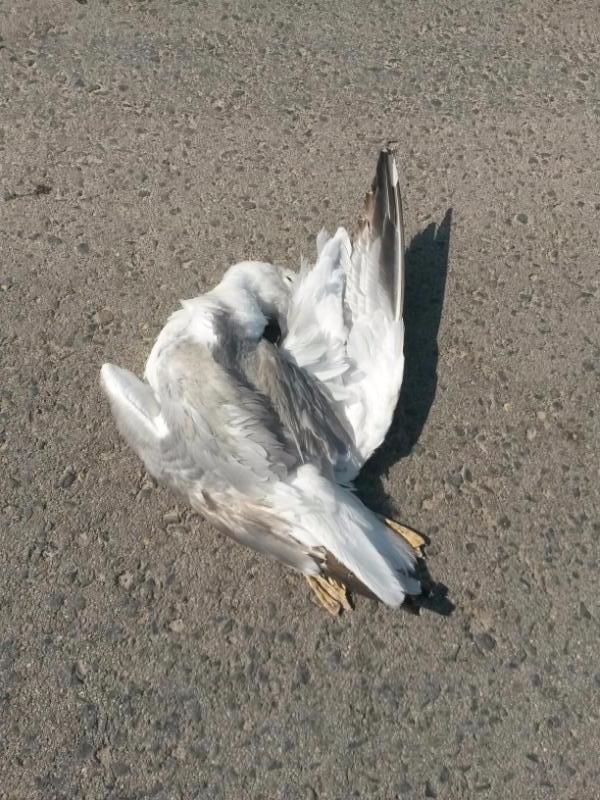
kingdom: Animalia
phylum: Chordata
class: Aves
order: Charadriiformes
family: Laridae
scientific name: Laridae
